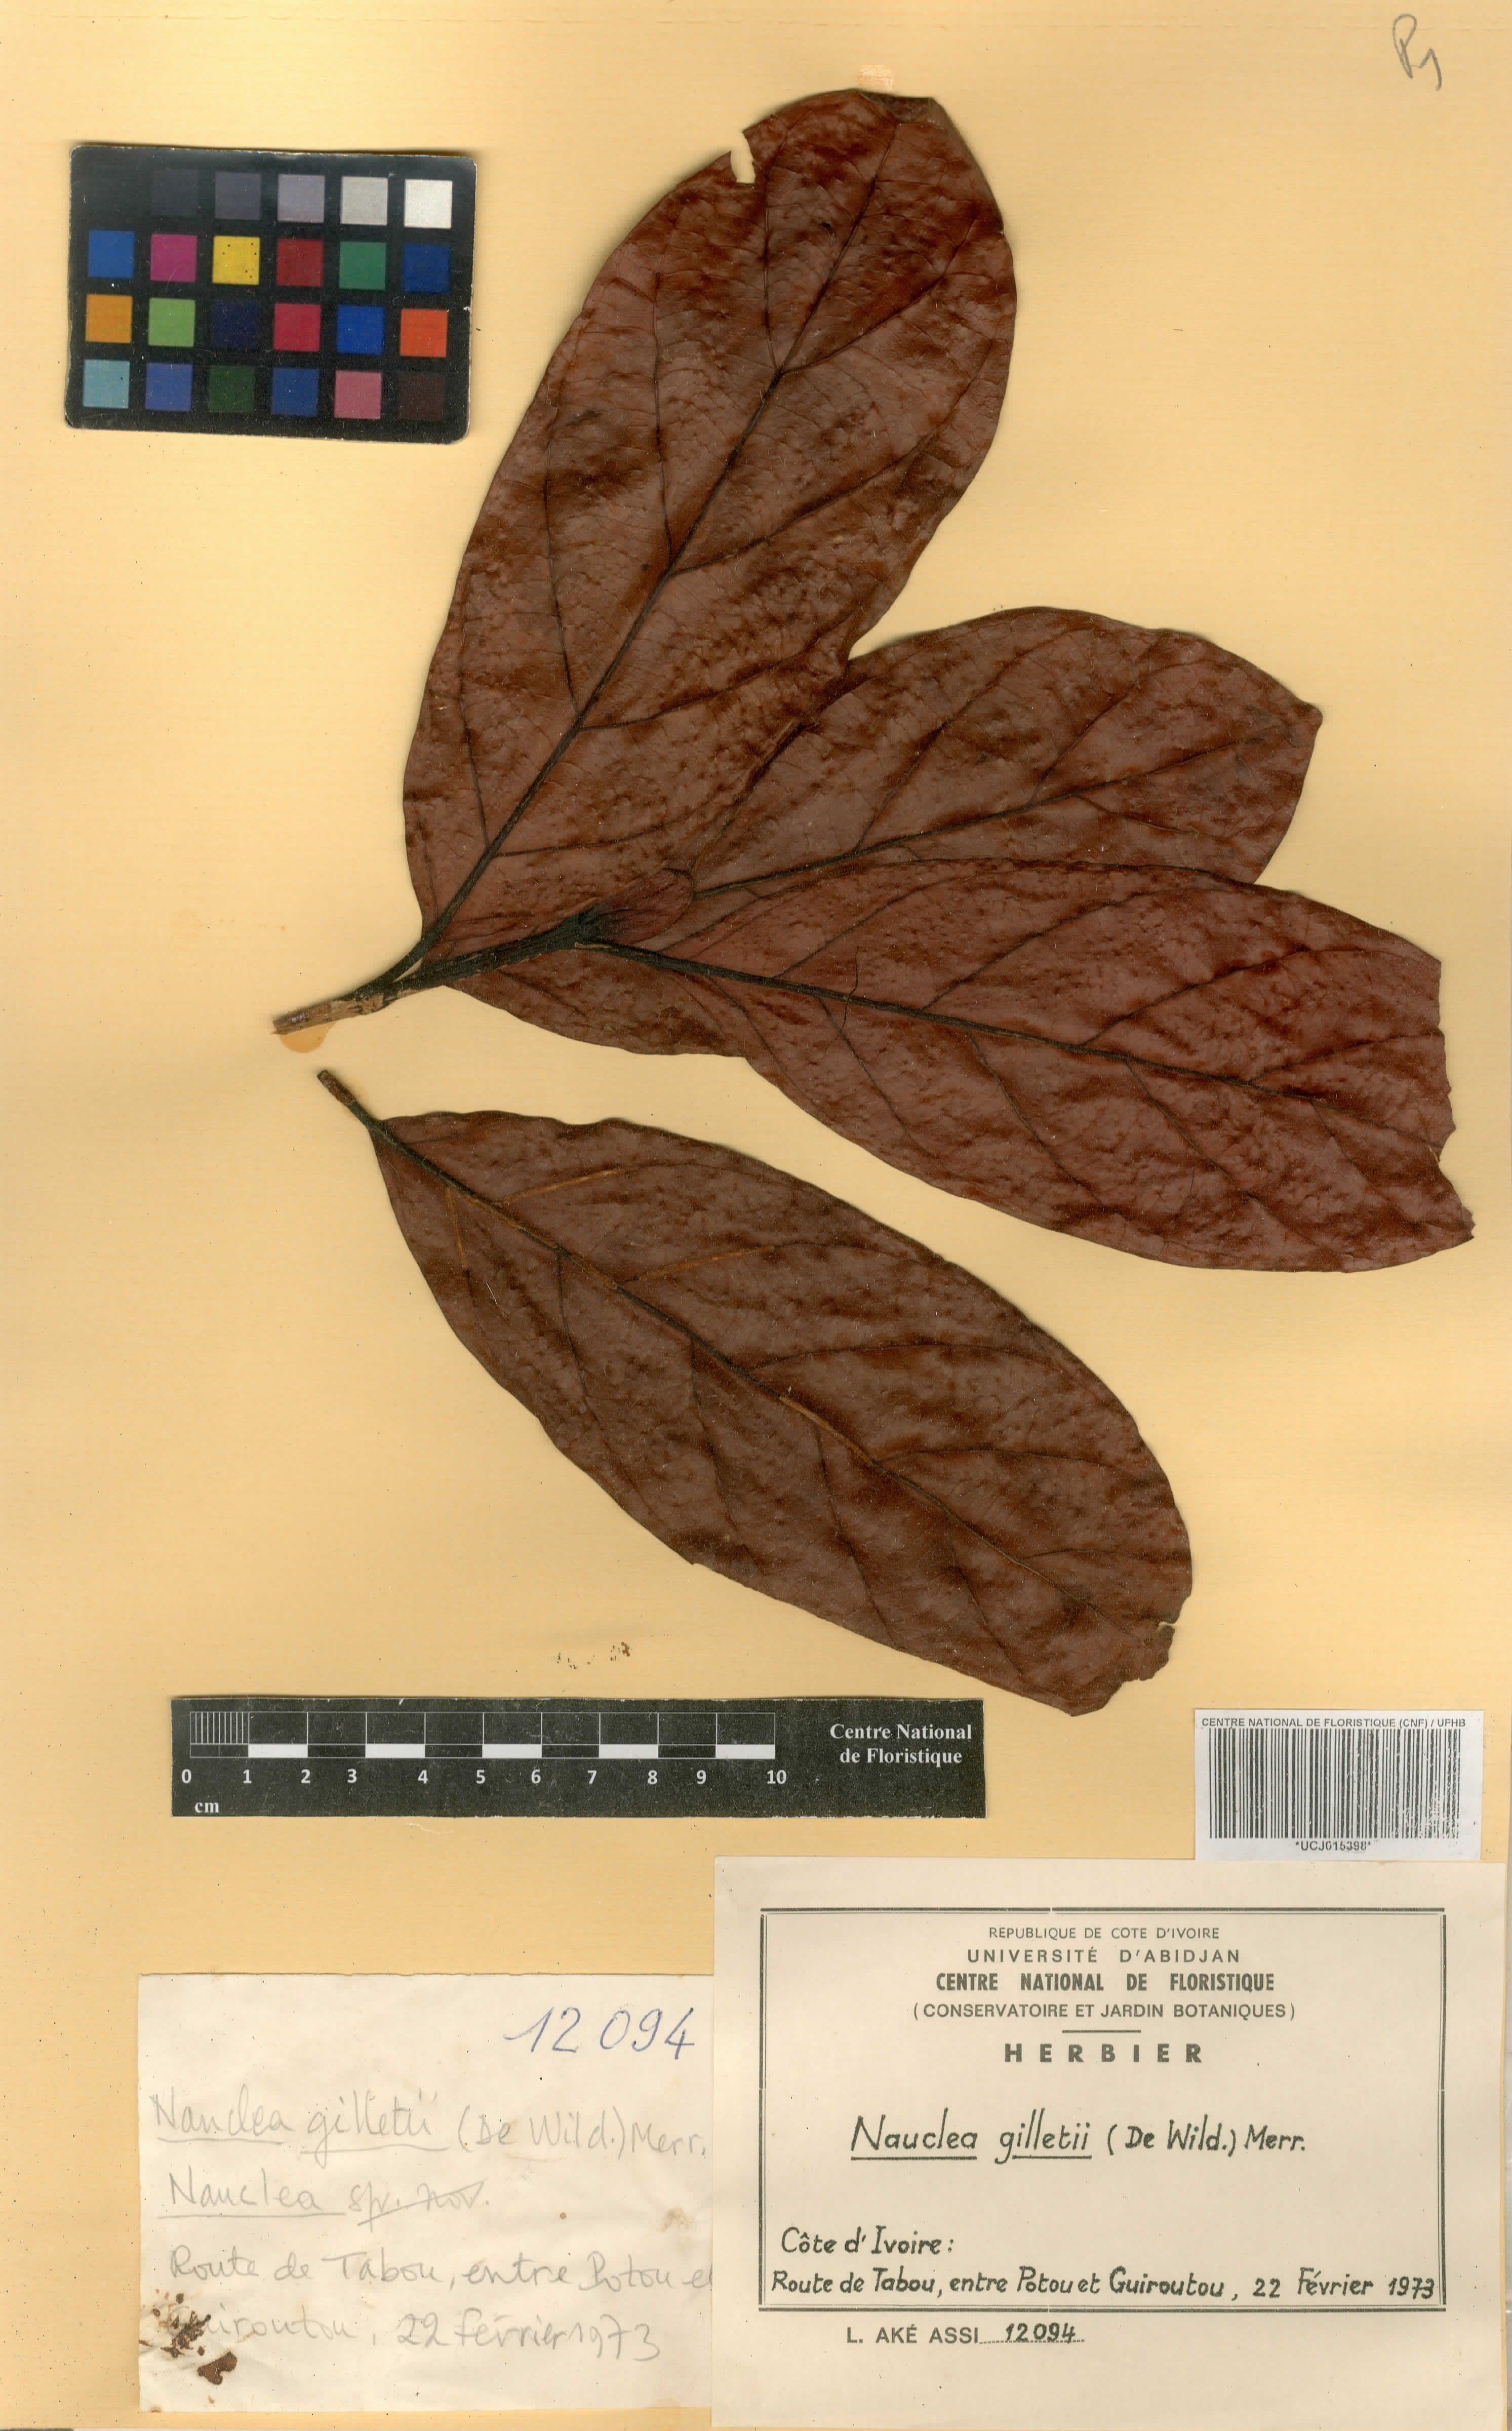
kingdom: Plantae
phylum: Tracheophyta
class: Magnoliopsida
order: Gentianales
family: Rubiaceae
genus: Nauclea
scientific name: Nauclea gilletii
